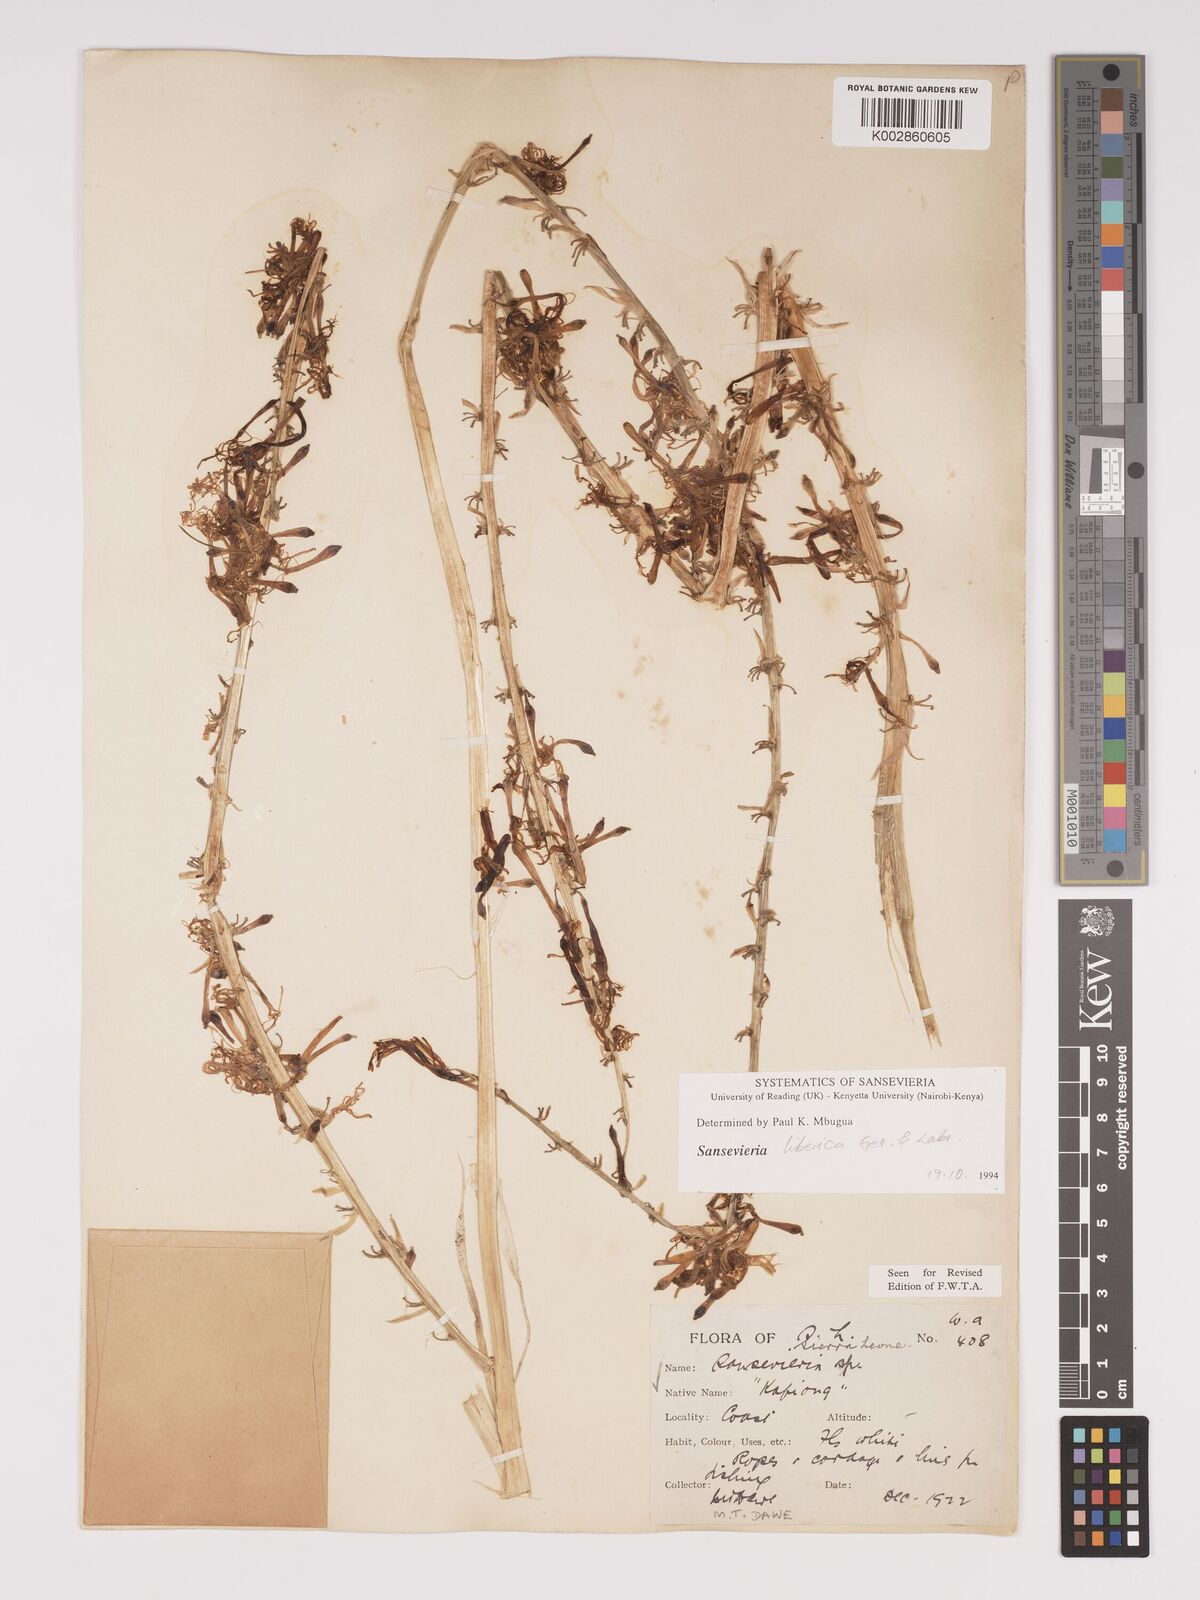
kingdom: Plantae
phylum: Tracheophyta
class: Liliopsida
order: Asparagales
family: Asparagaceae
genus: Dracaena
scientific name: Dracaena liberica
